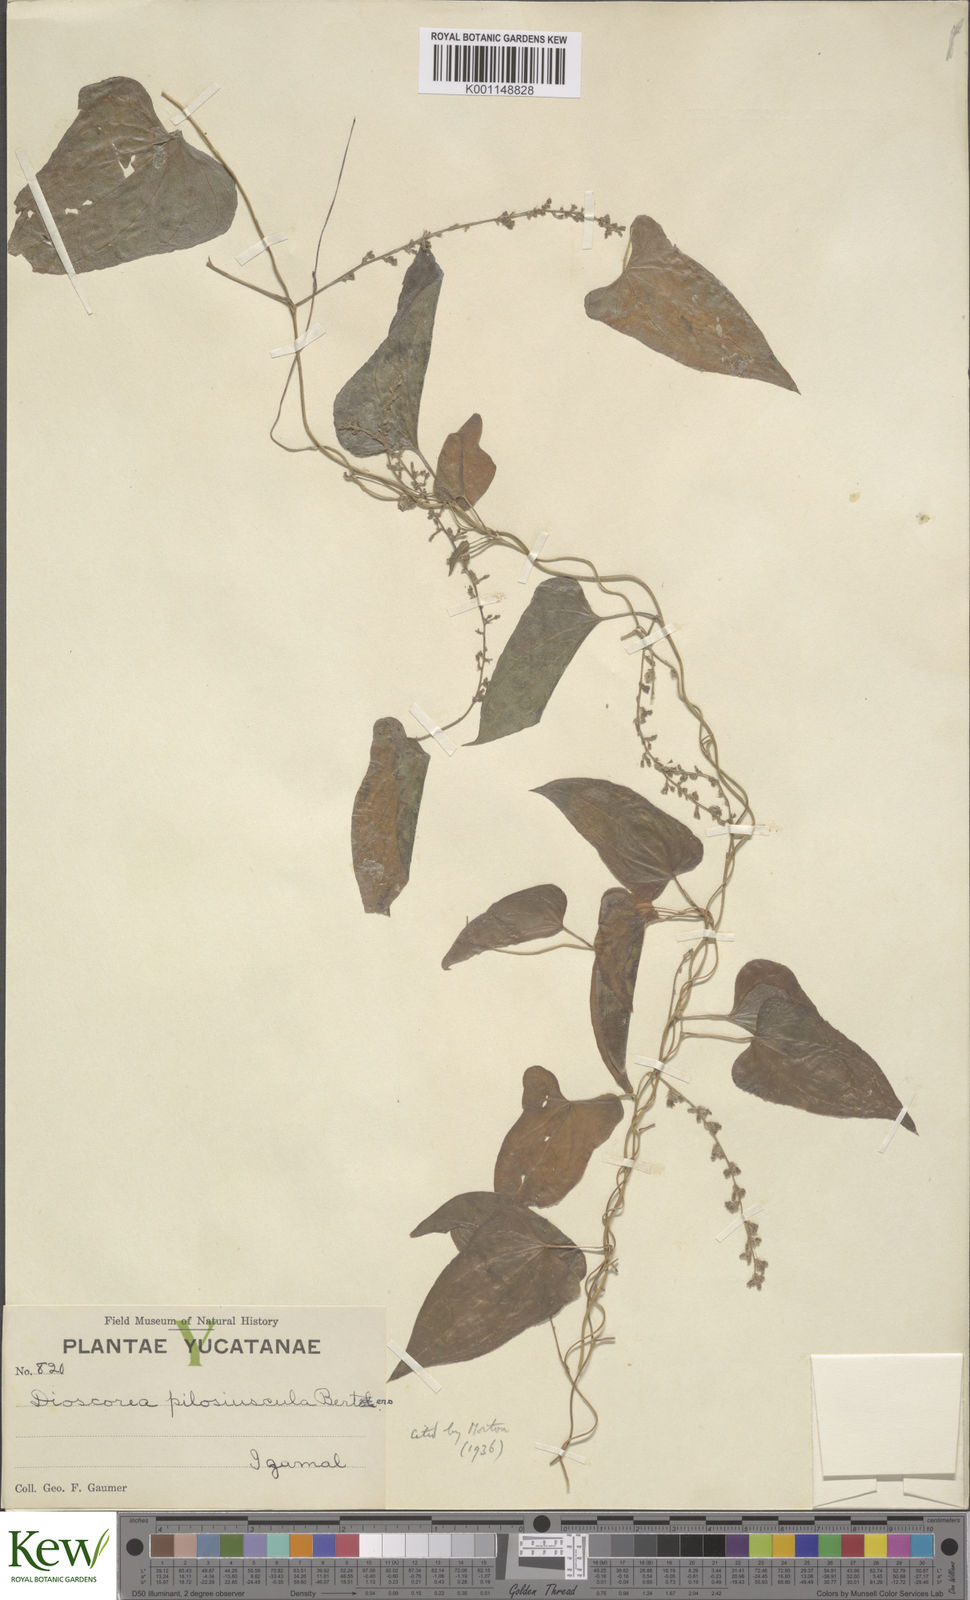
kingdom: Plantae
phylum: Tracheophyta
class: Liliopsida
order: Dioscoreales
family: Dioscoreaceae
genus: Dioscorea
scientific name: Dioscorea pilosiuscula
